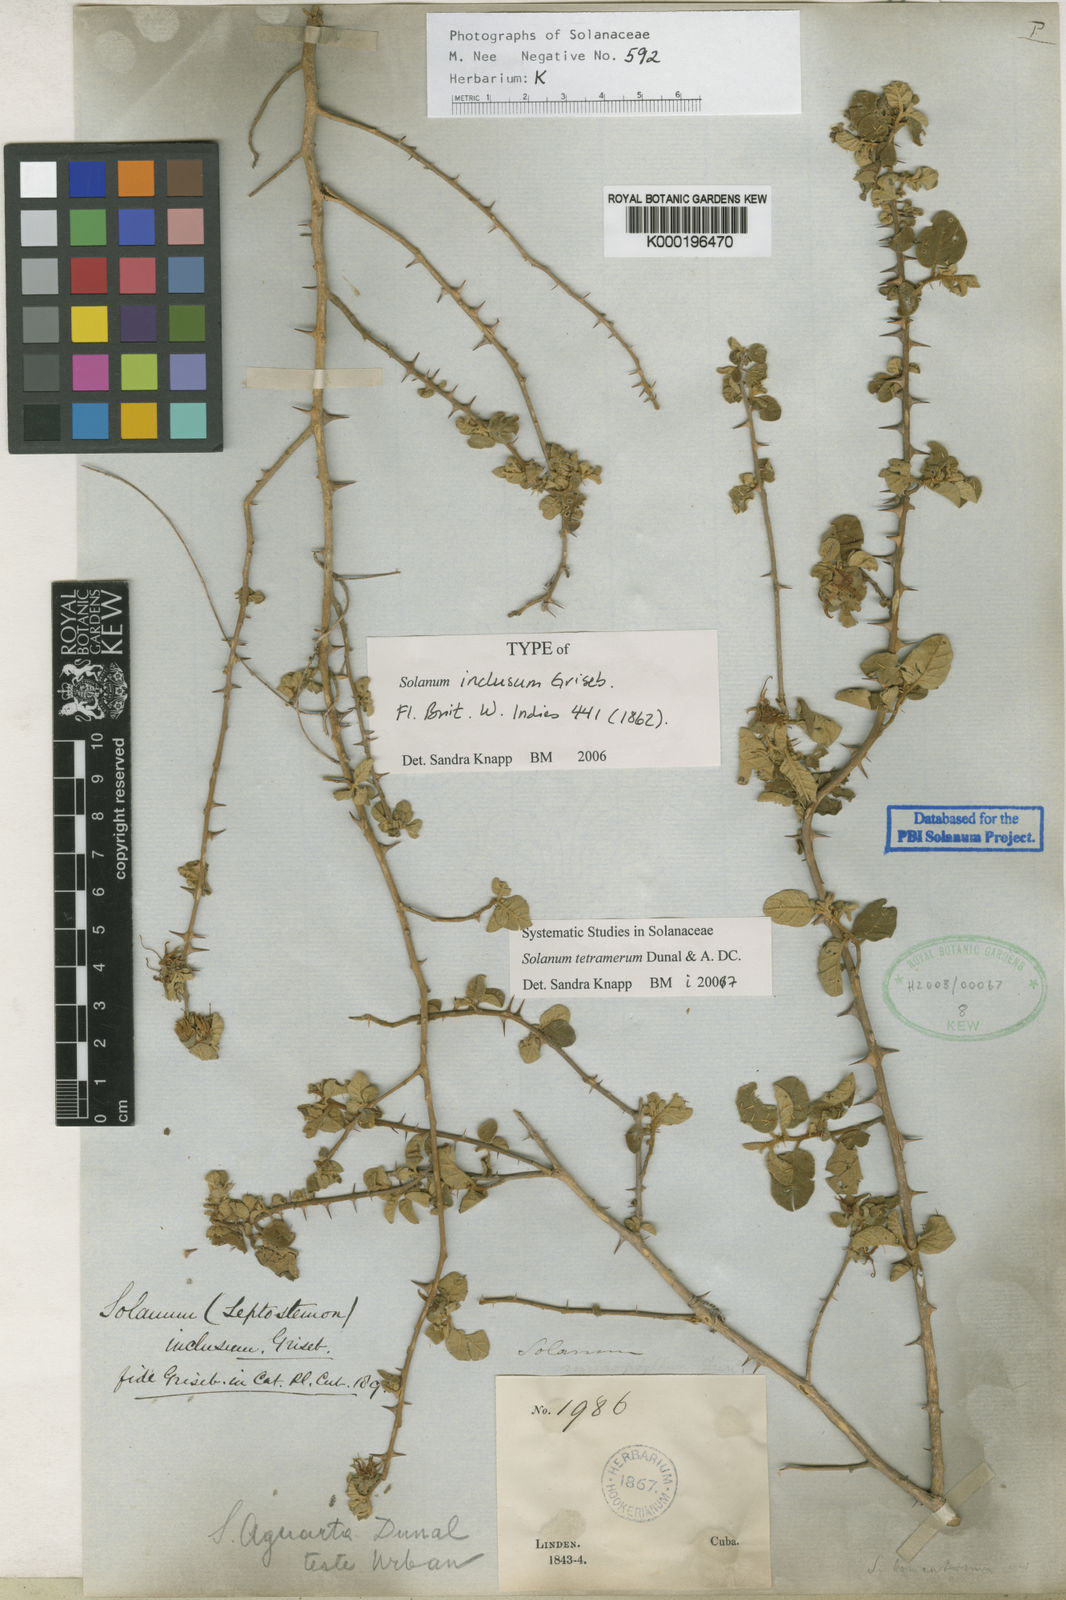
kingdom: Plantae
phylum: Tracheophyta
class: Magnoliopsida
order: Solanales
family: Solanaceae
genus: Solanum
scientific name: Solanum tetramerum
